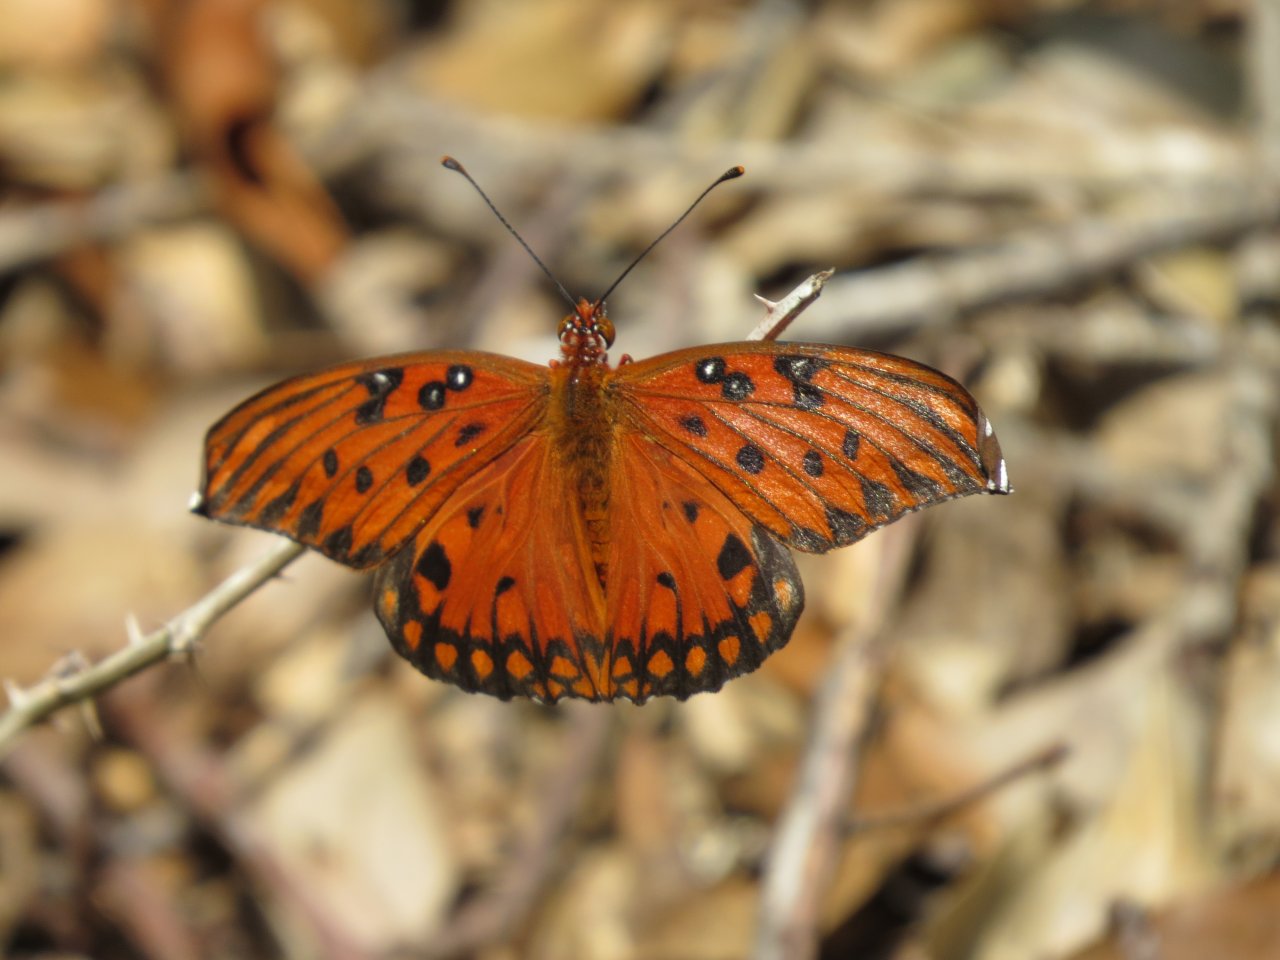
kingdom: Animalia
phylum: Arthropoda
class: Insecta
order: Lepidoptera
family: Nymphalidae
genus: Dione
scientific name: Dione vanillae
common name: Gulf Fritillary
